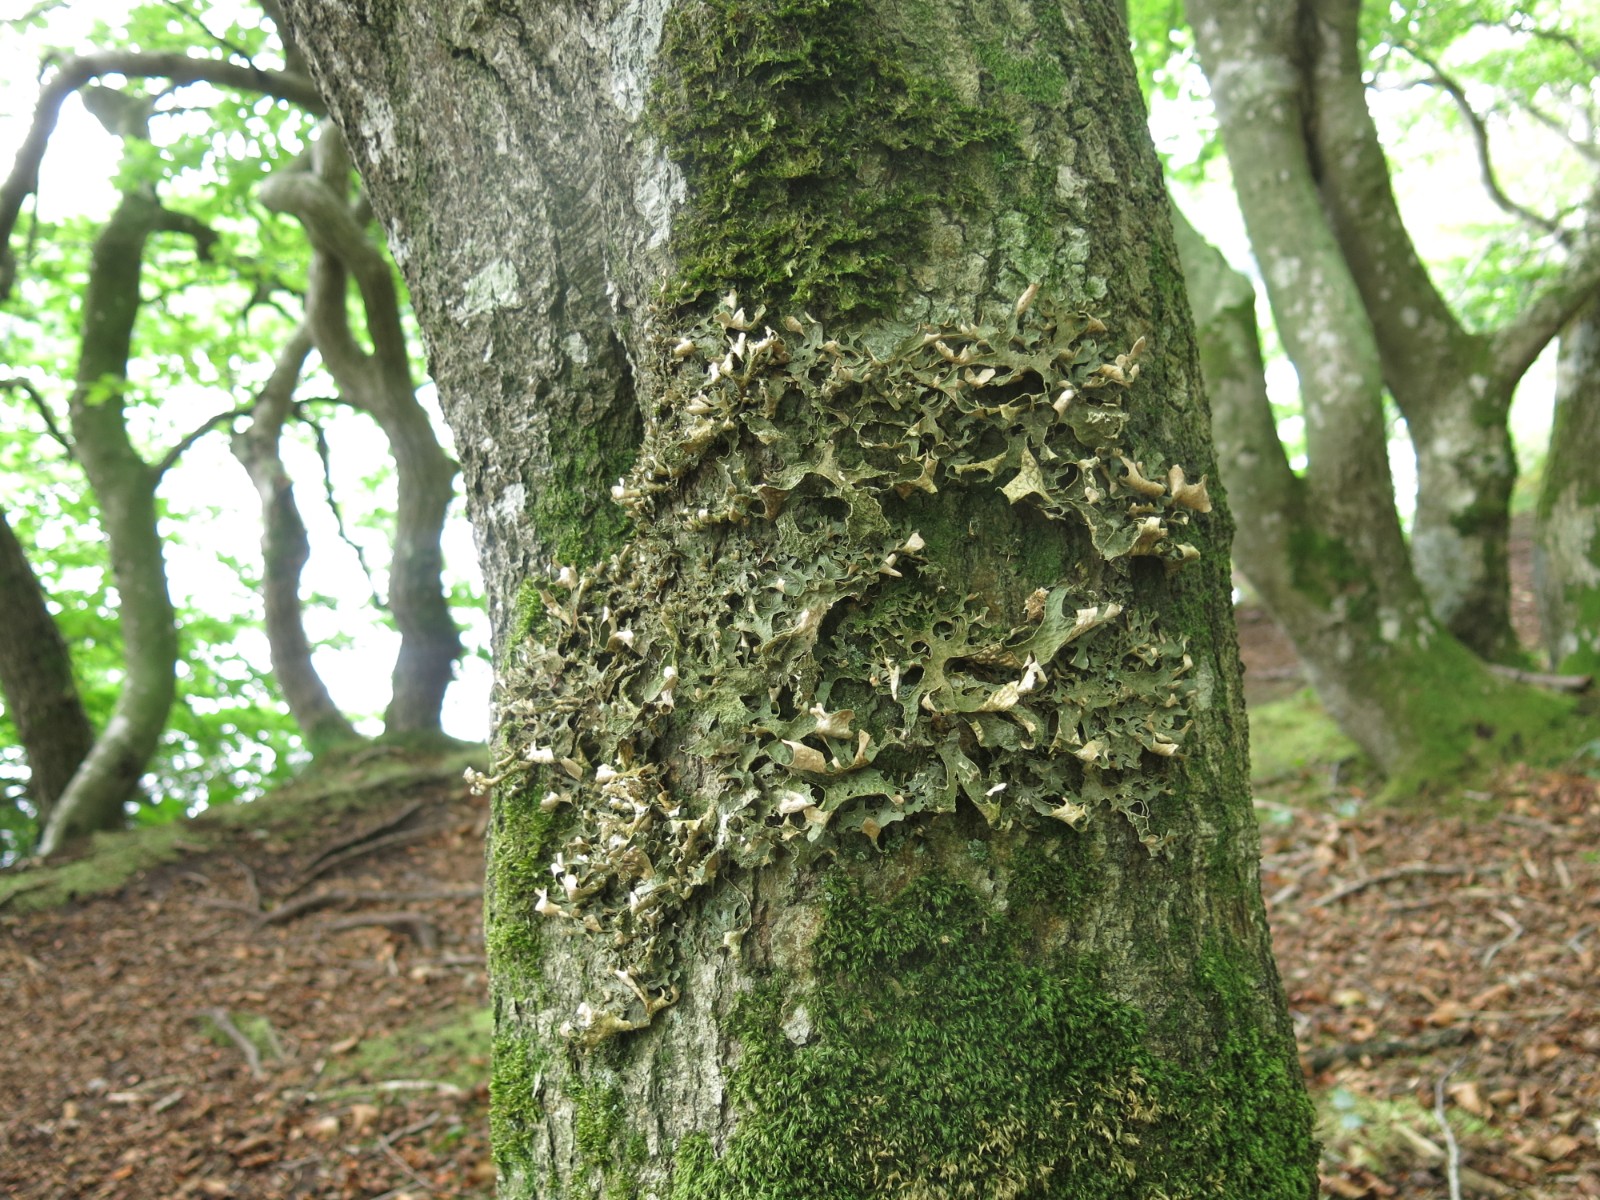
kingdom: Fungi
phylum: Ascomycota
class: Lecanoromycetes
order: Peltigerales
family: Lobariaceae
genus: Lobaria
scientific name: Lobaria pulmonaria
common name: almindelig lungelav
